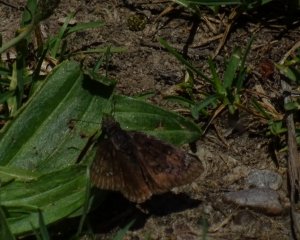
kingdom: Animalia
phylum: Arthropoda
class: Insecta
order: Lepidoptera
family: Hesperiidae
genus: Gesta
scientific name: Gesta
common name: Juvenal's Duskywing
